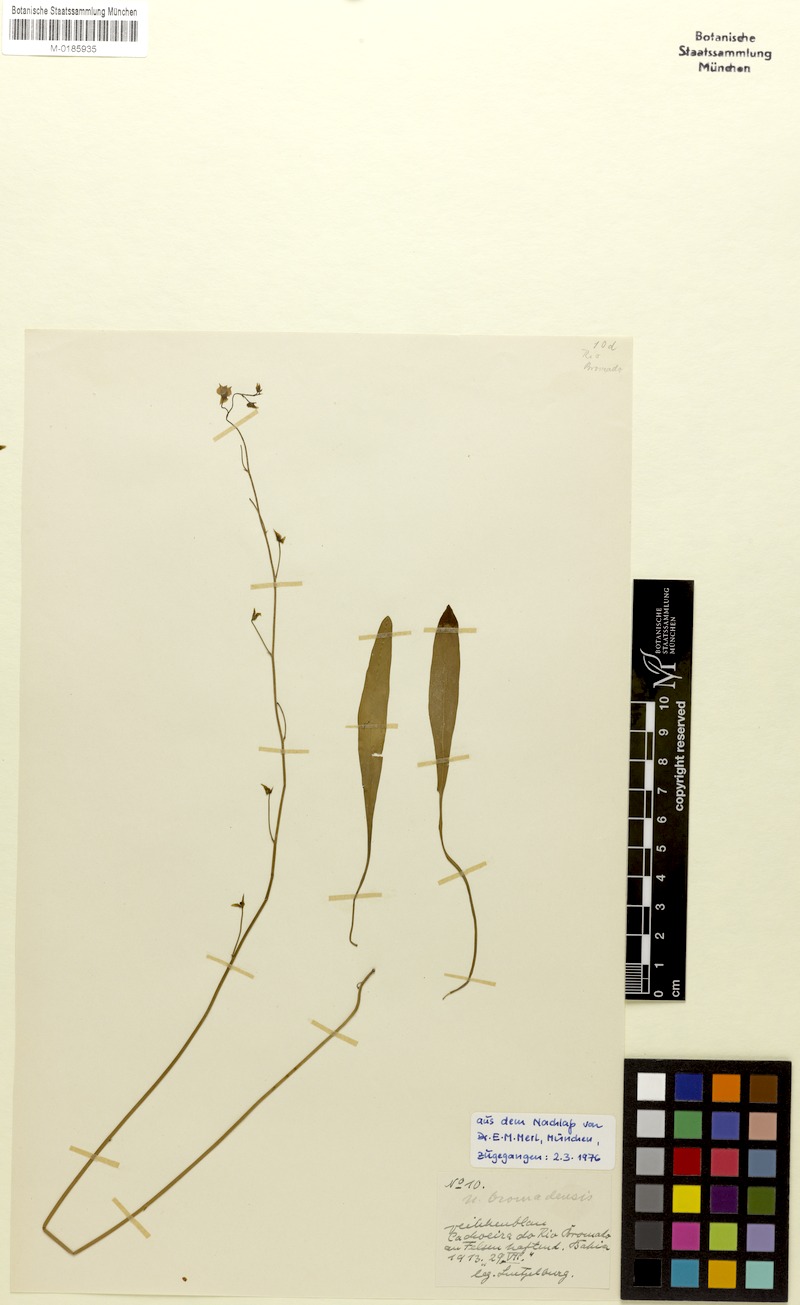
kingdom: Plantae
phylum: Tracheophyta
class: Magnoliopsida
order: Lamiales
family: Lentibulariaceae
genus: Utricularia
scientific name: Utricularia longifolia
